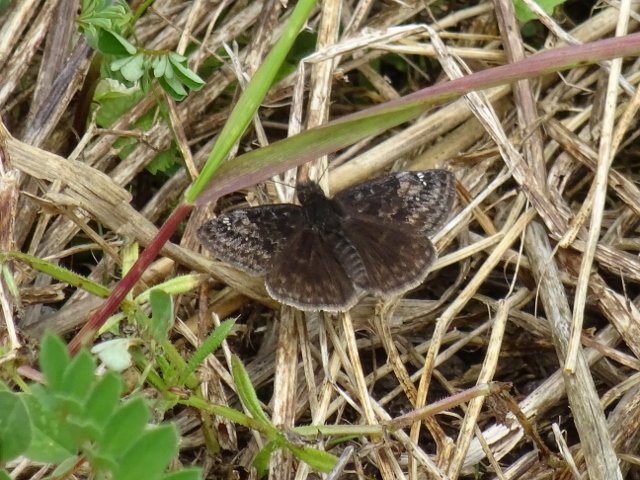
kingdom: Animalia
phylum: Arthropoda
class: Insecta
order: Lepidoptera
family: Hesperiidae
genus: Gesta
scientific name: Gesta
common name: Wild Indigo Duskywing
